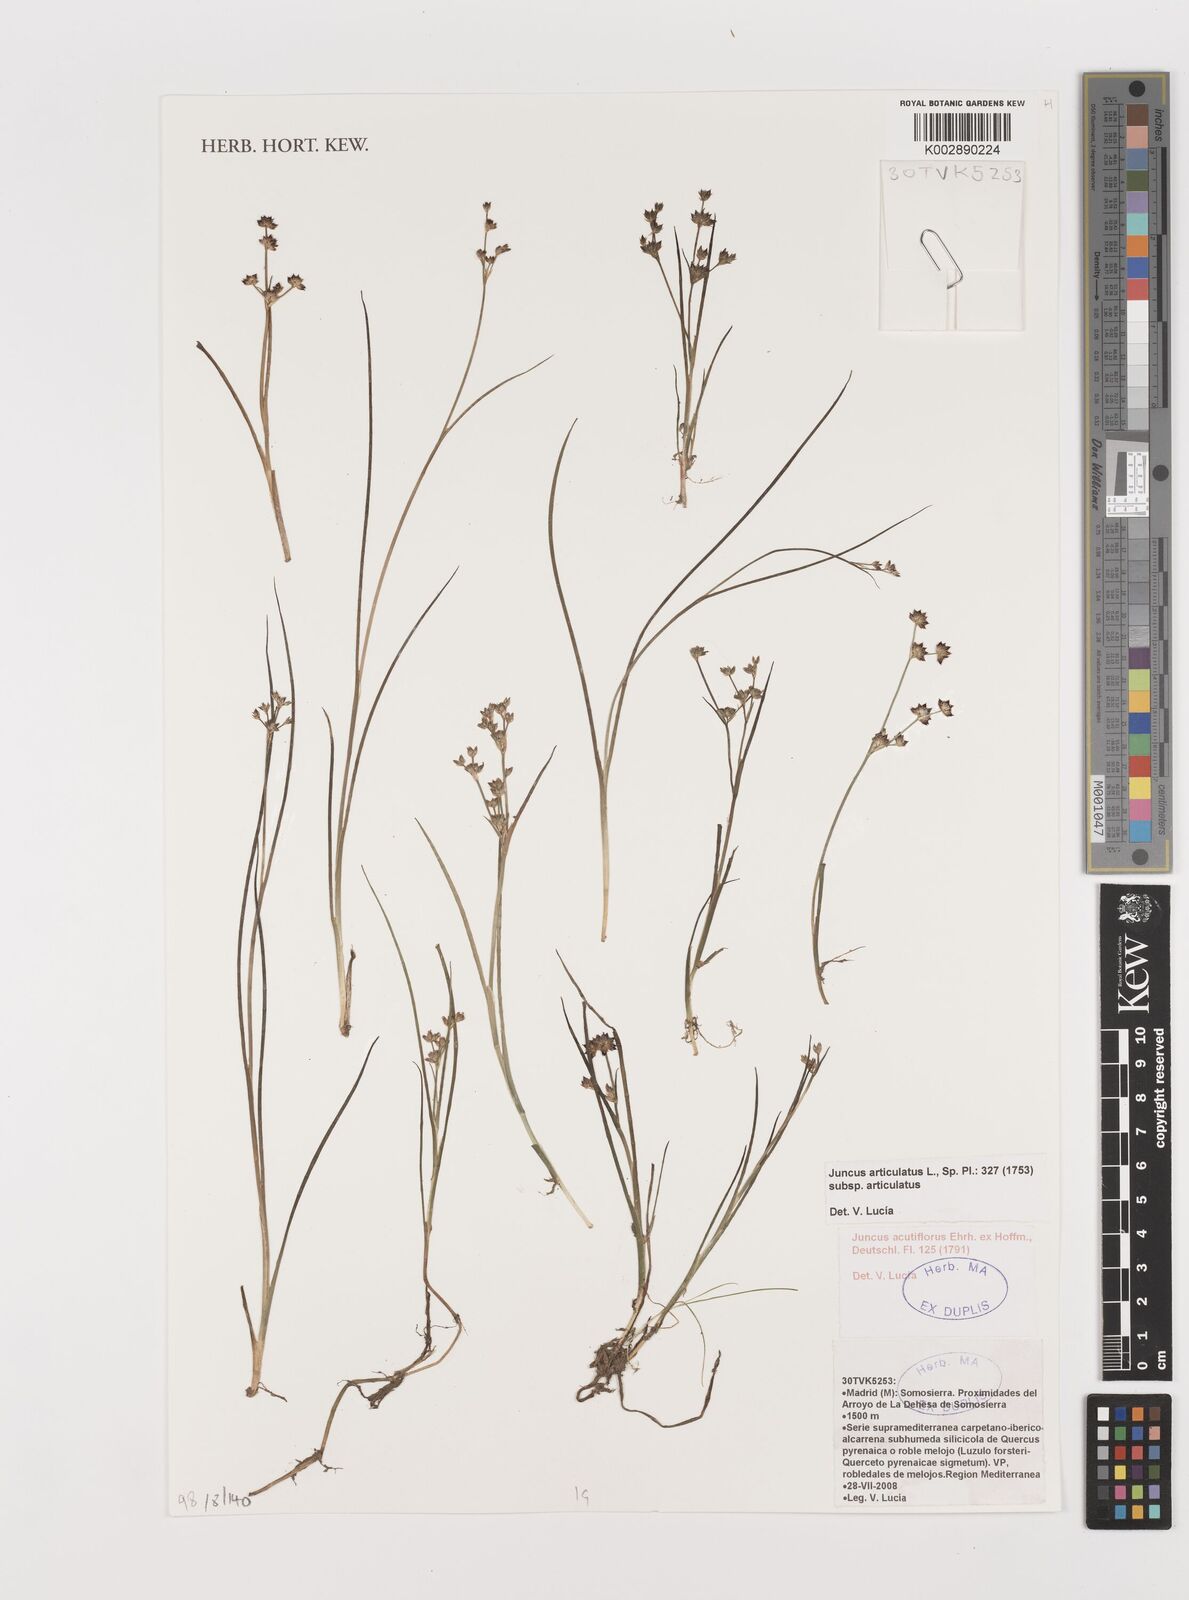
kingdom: Plantae
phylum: Tracheophyta
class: Liliopsida
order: Poales
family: Juncaceae
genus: Juncus
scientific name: Juncus articulatus
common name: Jointed rush
